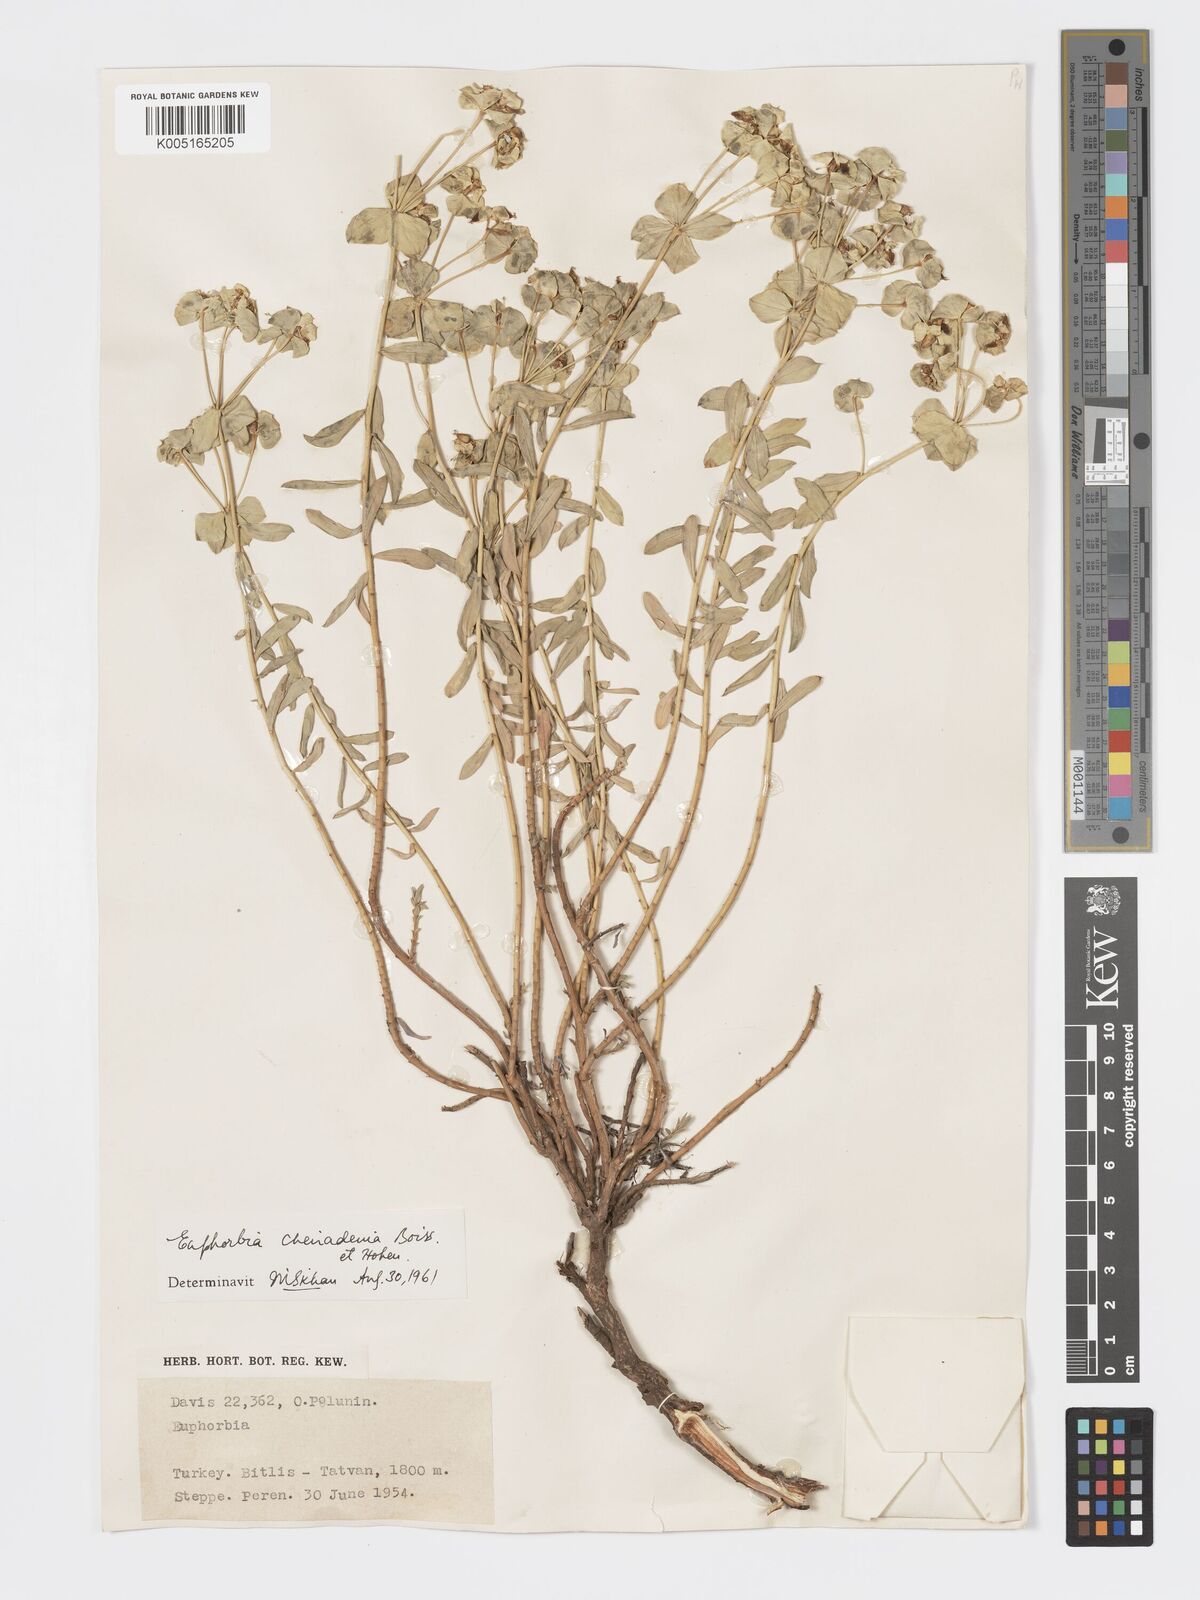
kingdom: Plantae
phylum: Tracheophyta
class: Magnoliopsida
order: Malpighiales
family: Euphorbiaceae
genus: Euphorbia
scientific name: Euphorbia cheiradenia
